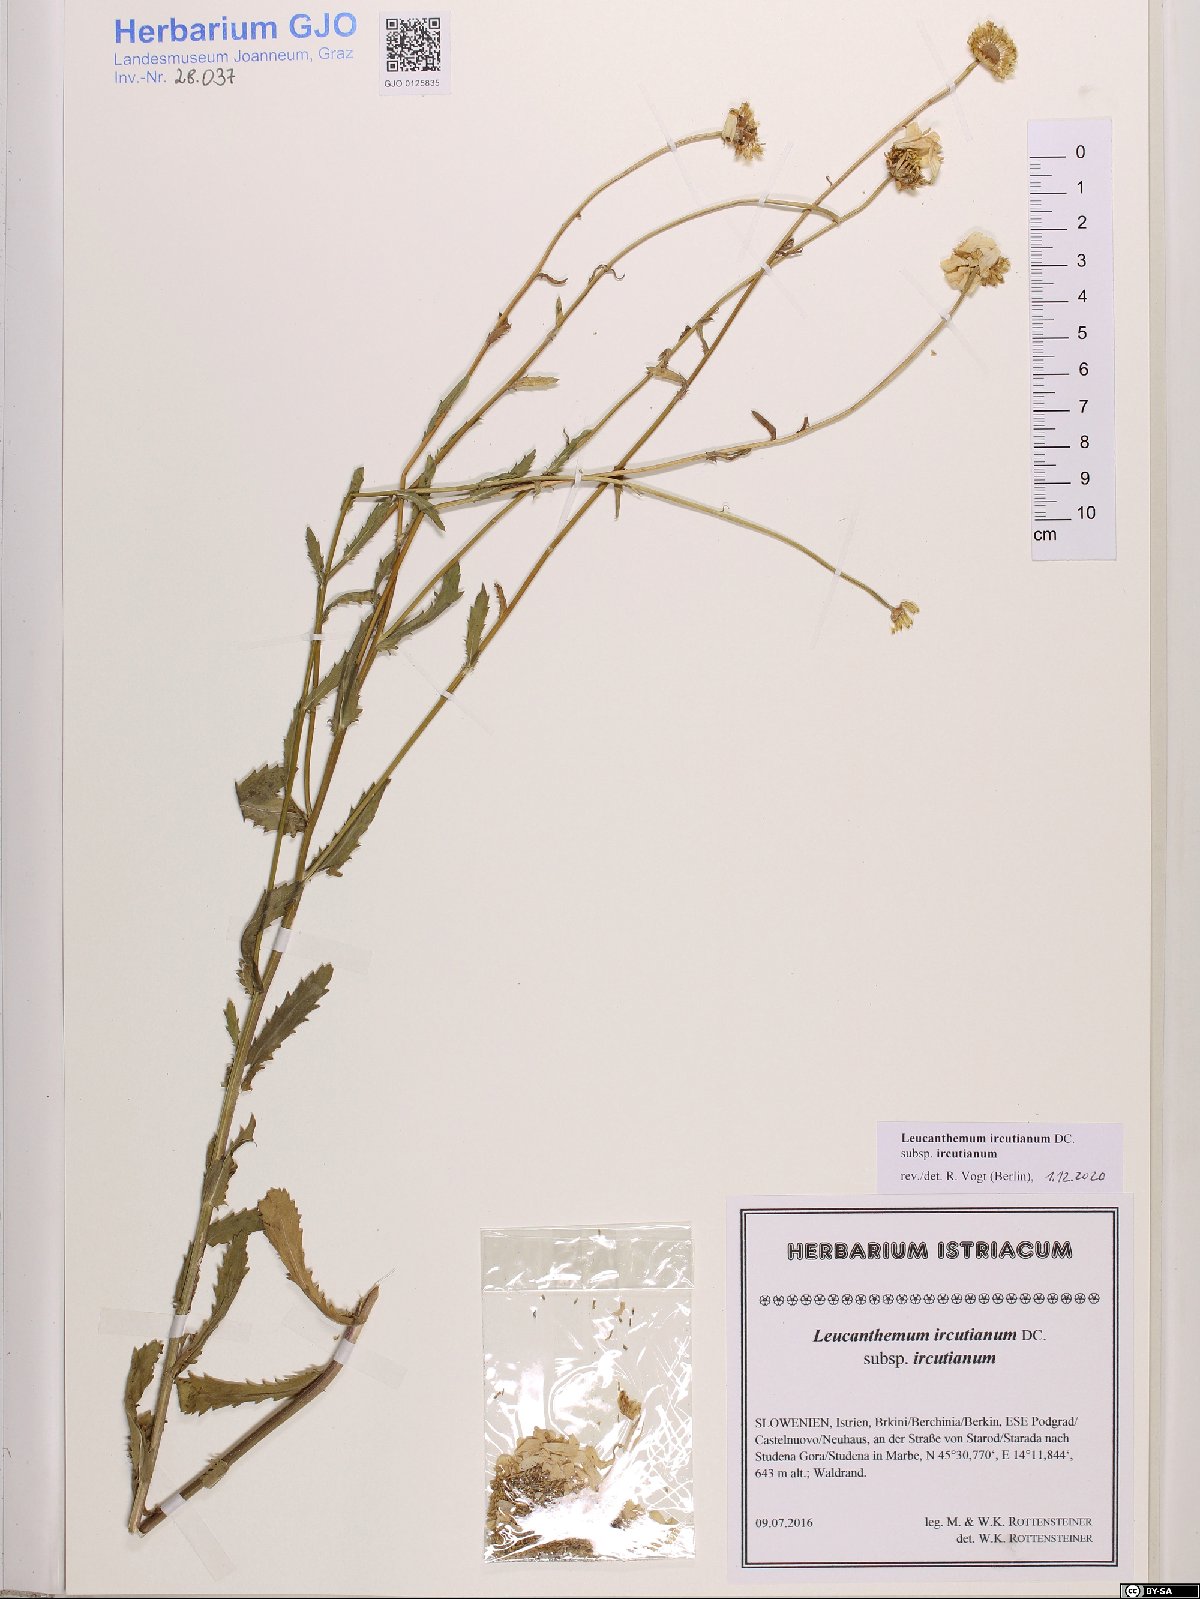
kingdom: Plantae
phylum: Tracheophyta
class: Magnoliopsida
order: Asterales
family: Asteraceae
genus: Leucanthemum
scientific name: Leucanthemum ircutianum
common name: Daisy
